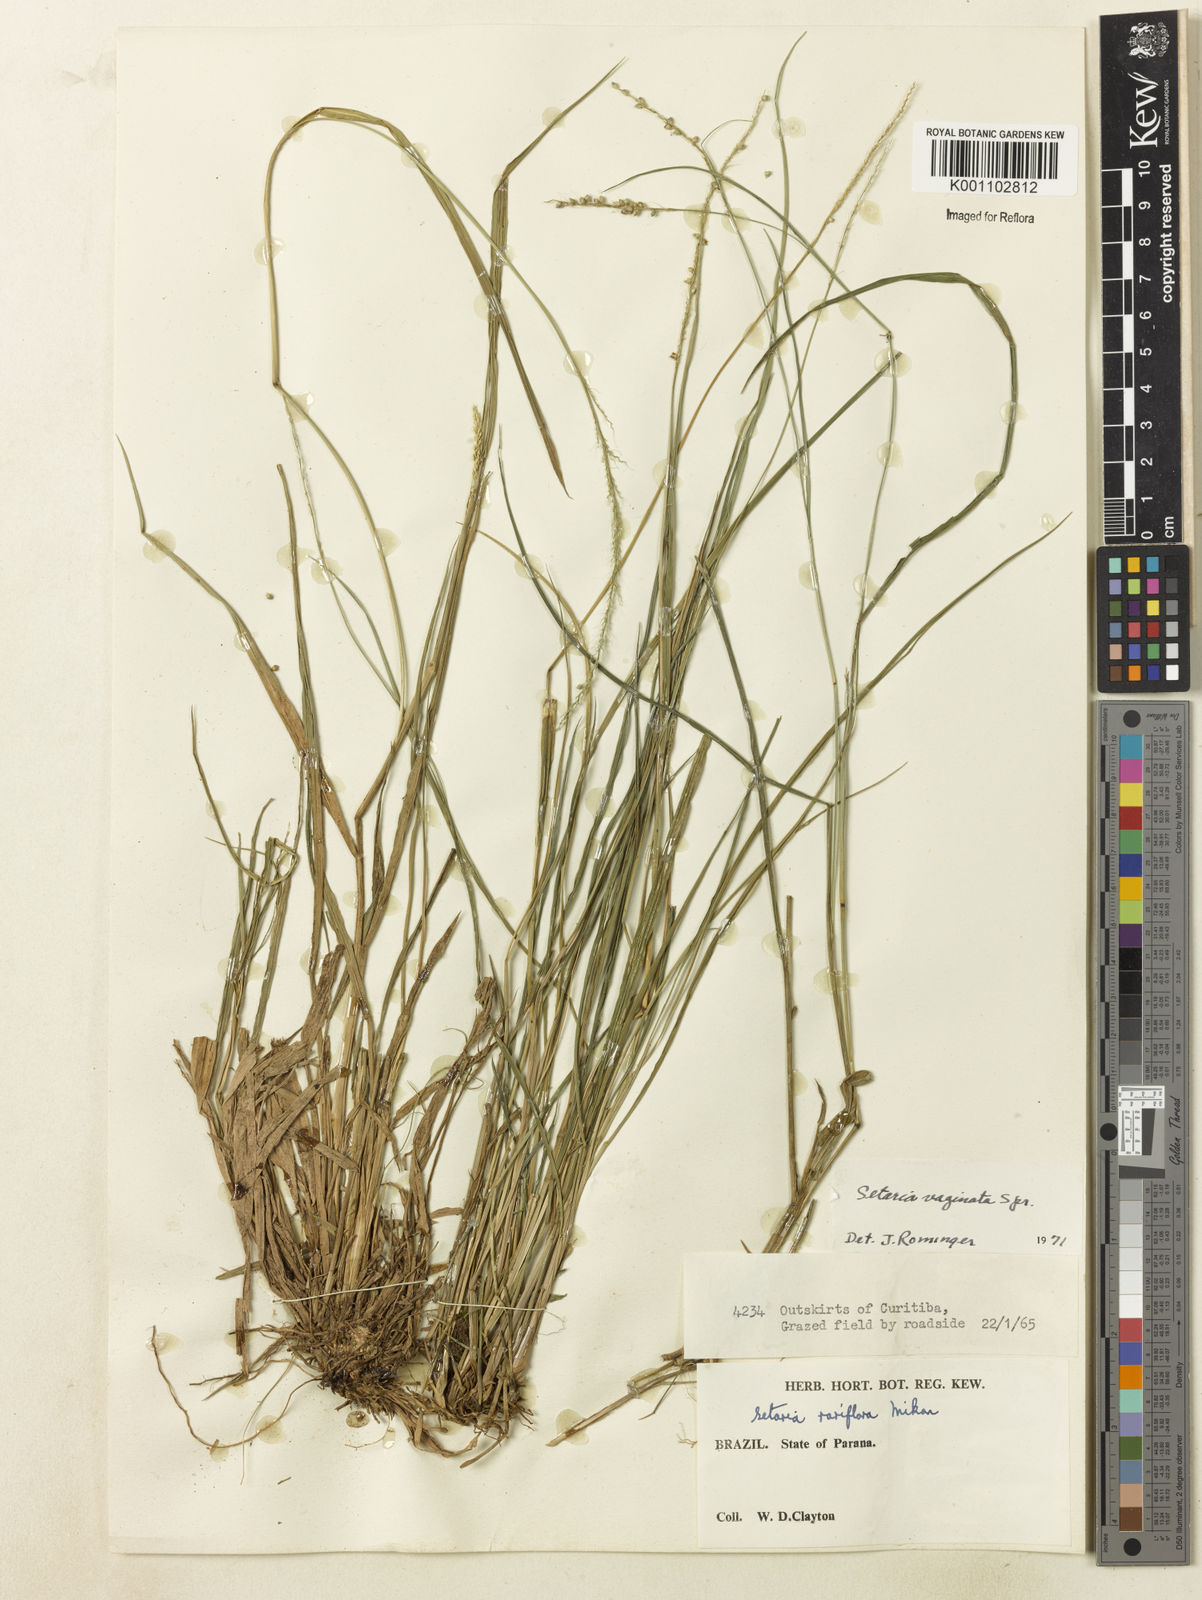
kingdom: Plantae
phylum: Tracheophyta
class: Liliopsida
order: Poales
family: Poaceae
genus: Setaria
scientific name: Setaria setosa
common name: West indies bristle grass
